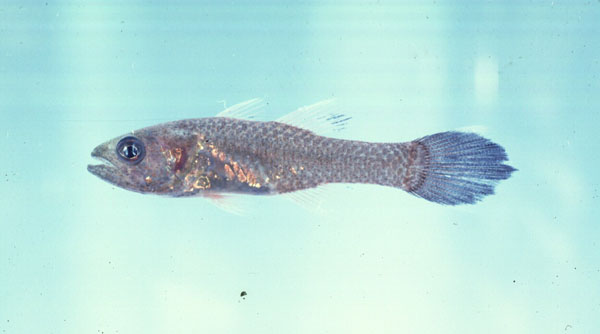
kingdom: Animalia
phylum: Chordata
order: Perciformes
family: Apogonidae
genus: Pseudamia
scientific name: Pseudamia gelatinosa
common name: Gelatinous cardinalfish
